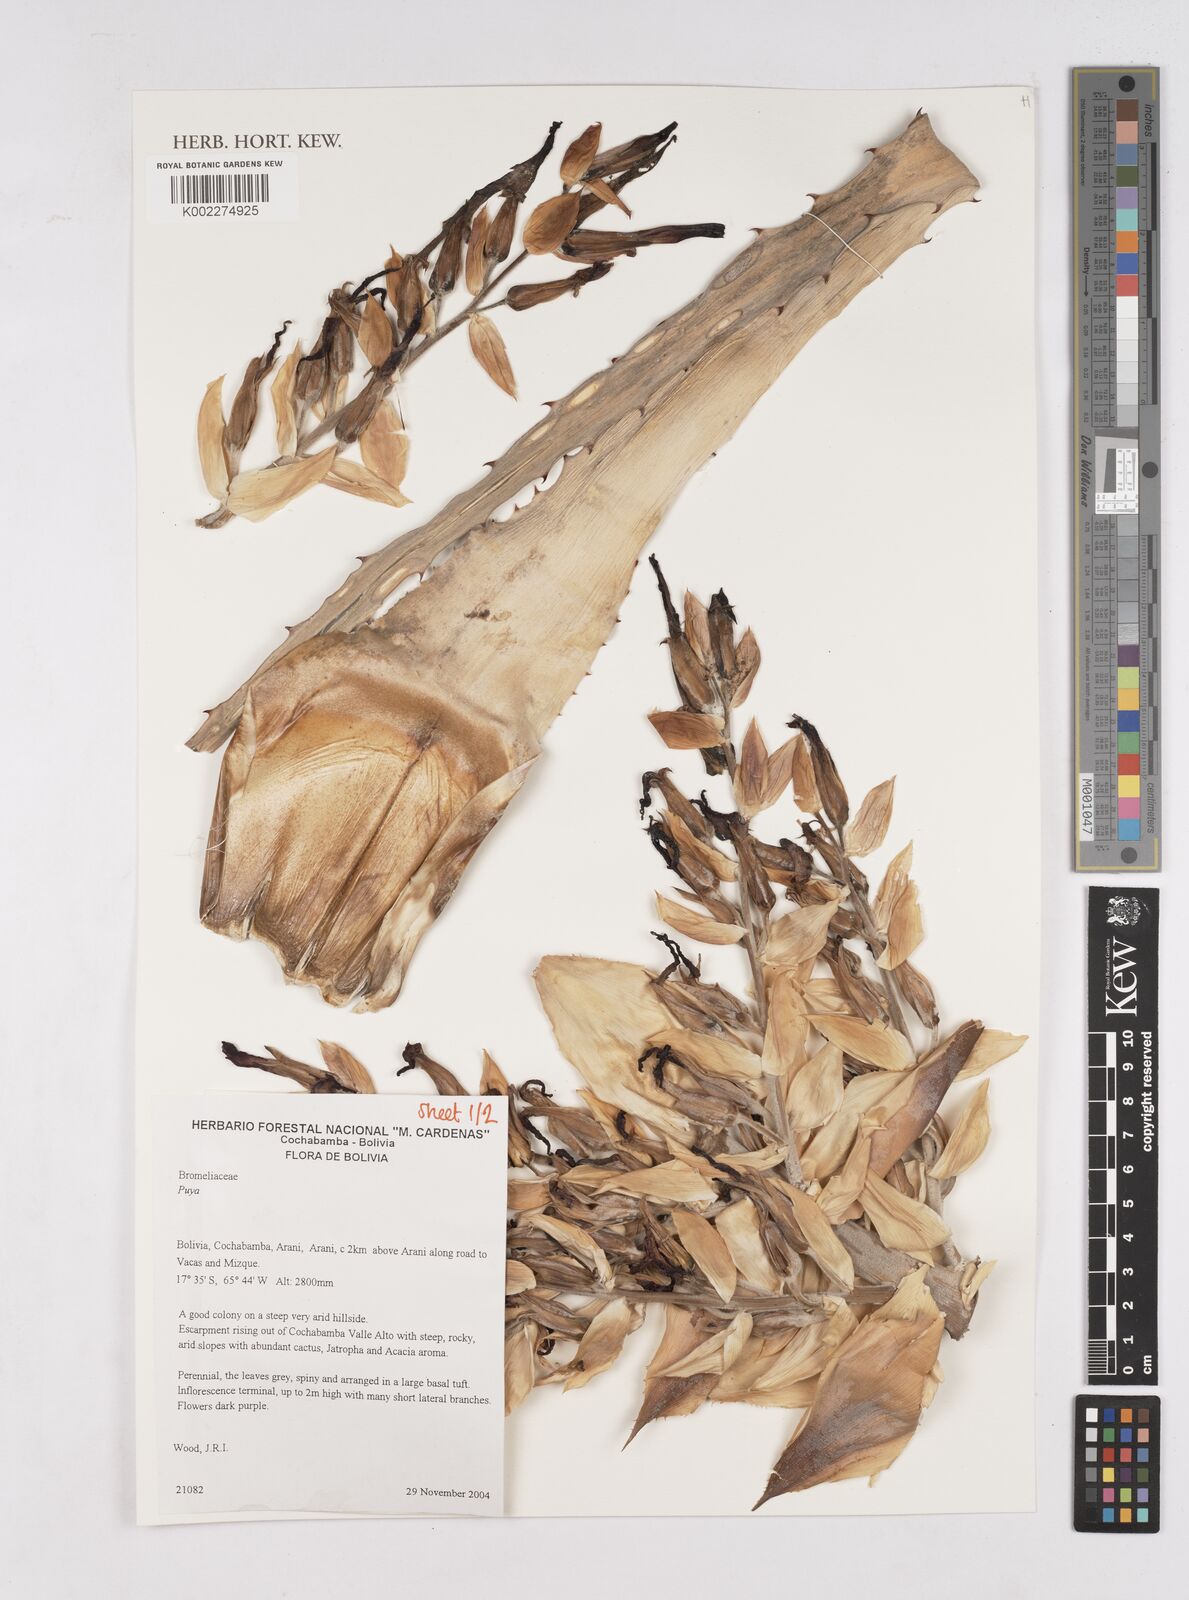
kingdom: Plantae
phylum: Tracheophyta
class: Liliopsida
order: Poales
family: Bromeliaceae
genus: Puya
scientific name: Puya
